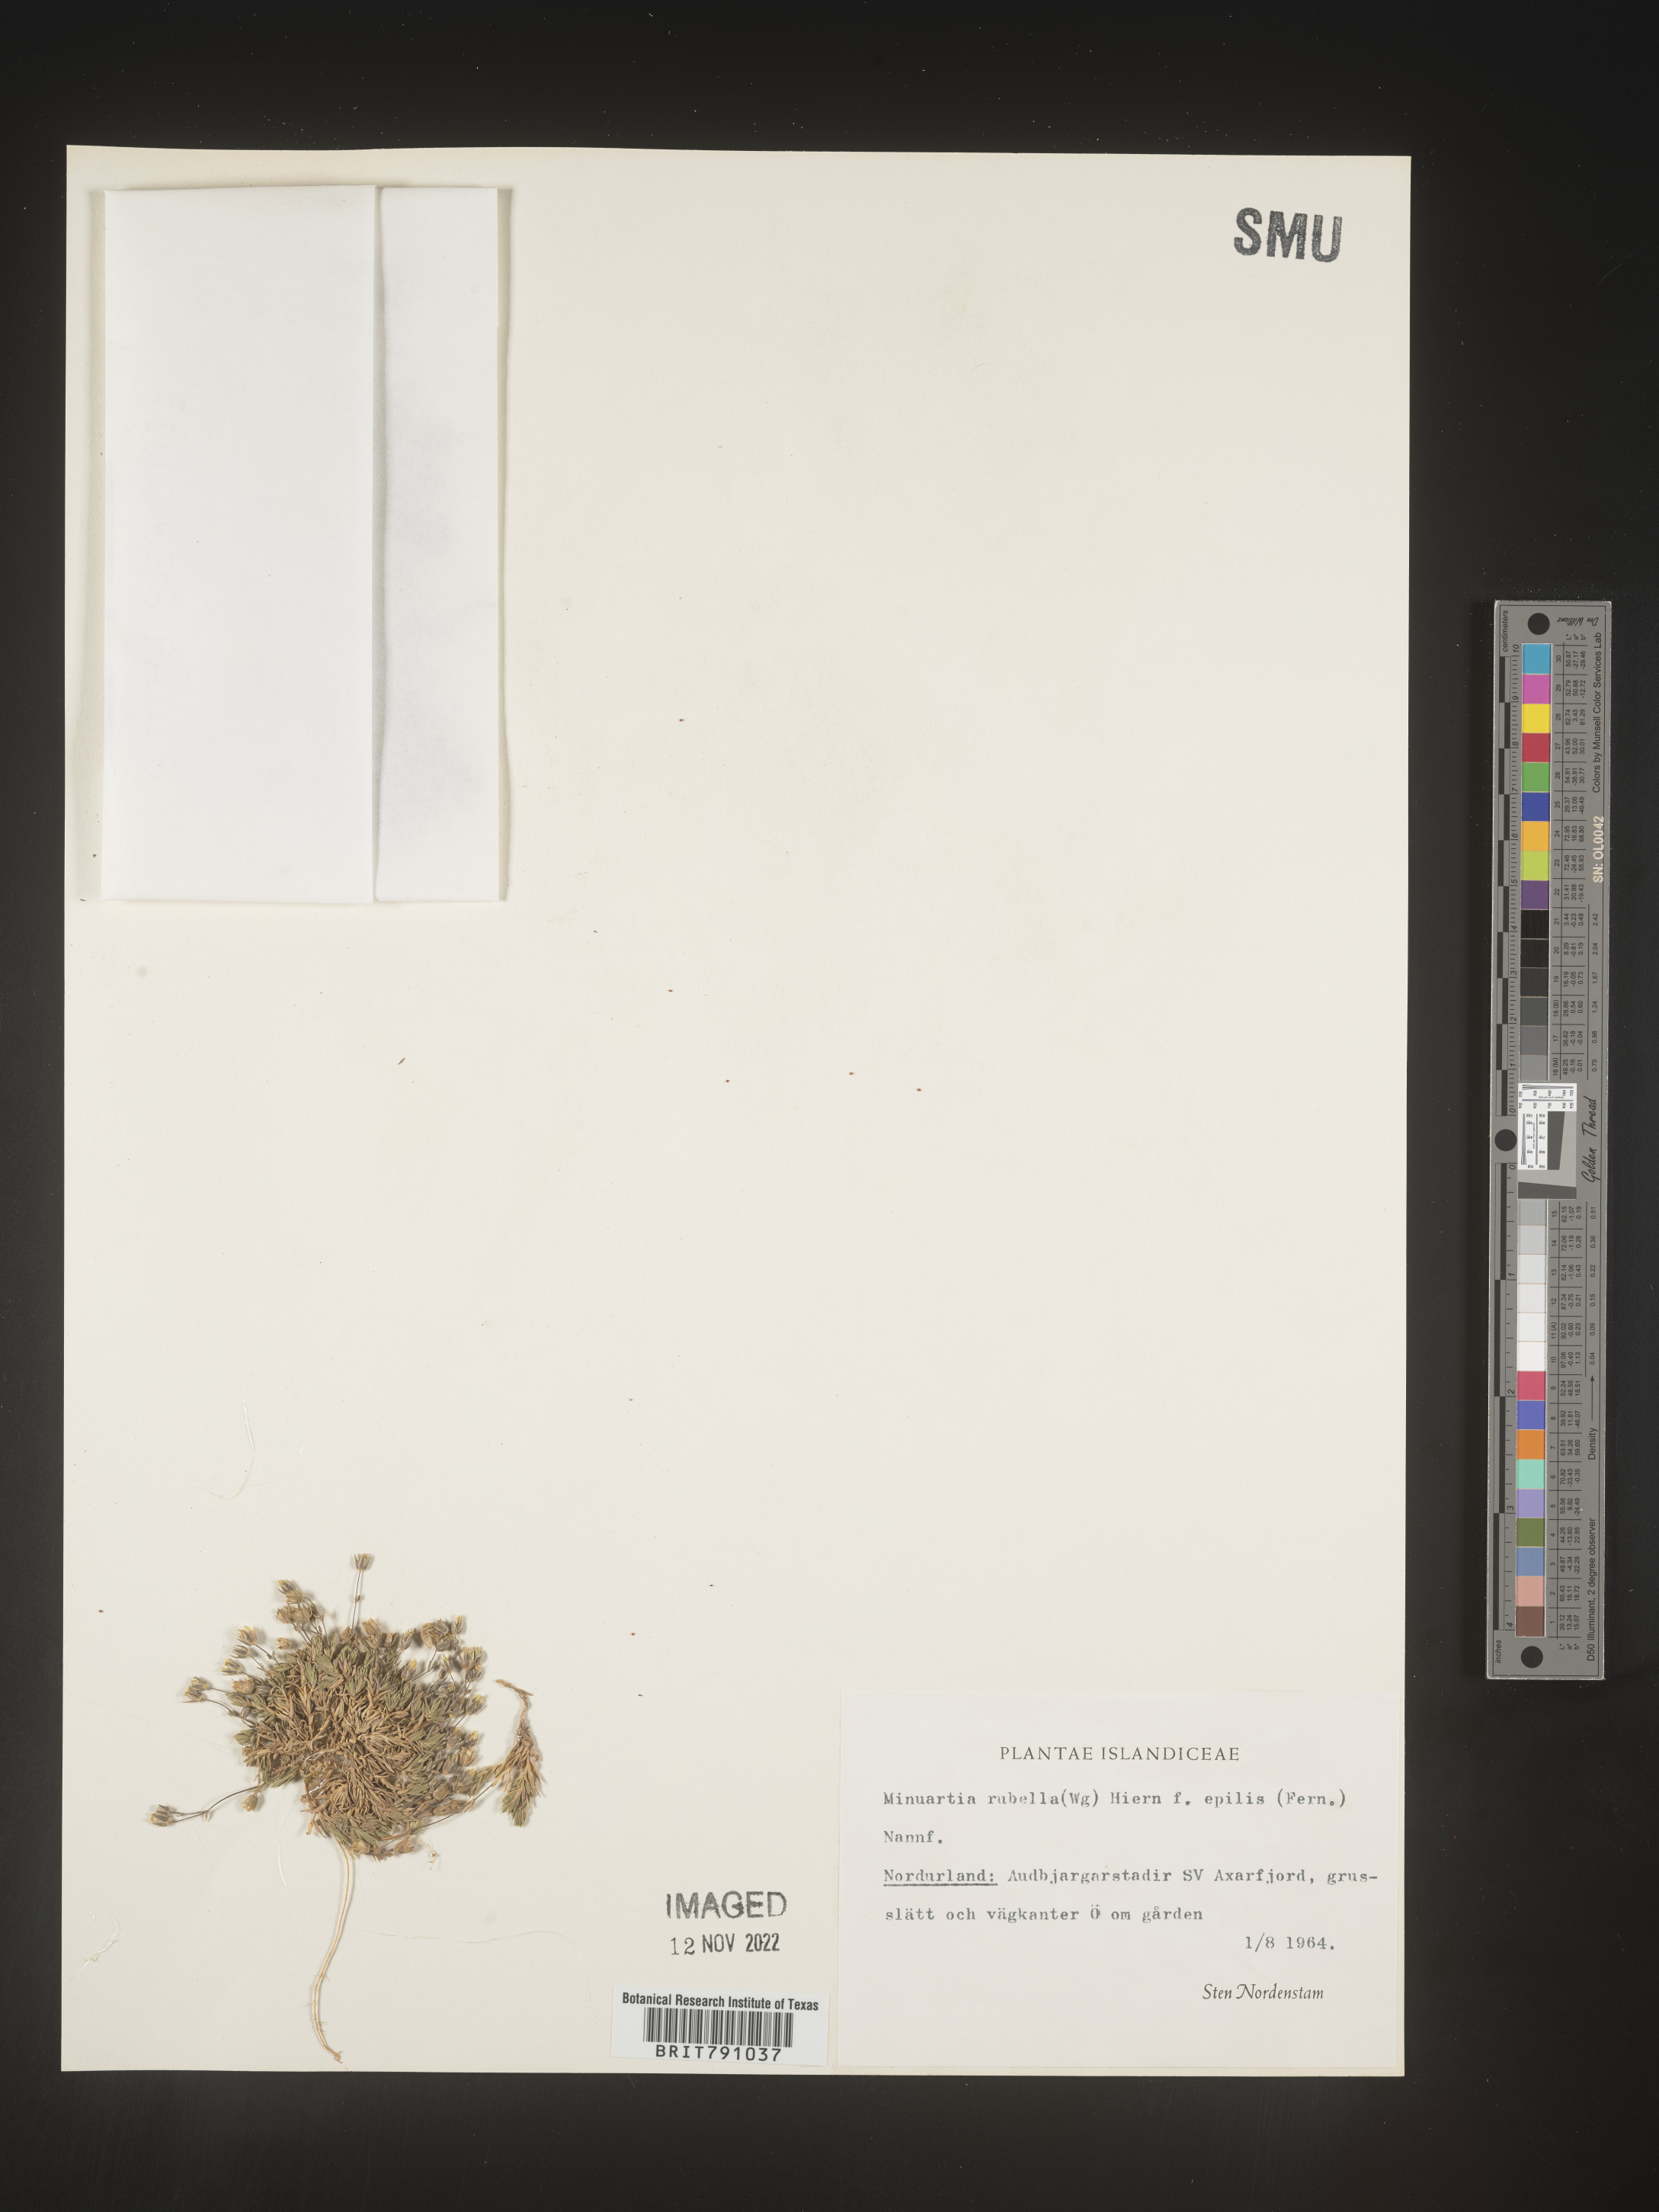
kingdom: Plantae
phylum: Tracheophyta
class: Magnoliopsida
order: Caryophyllales
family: Caryophyllaceae
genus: Minuartia
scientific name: Minuartia
